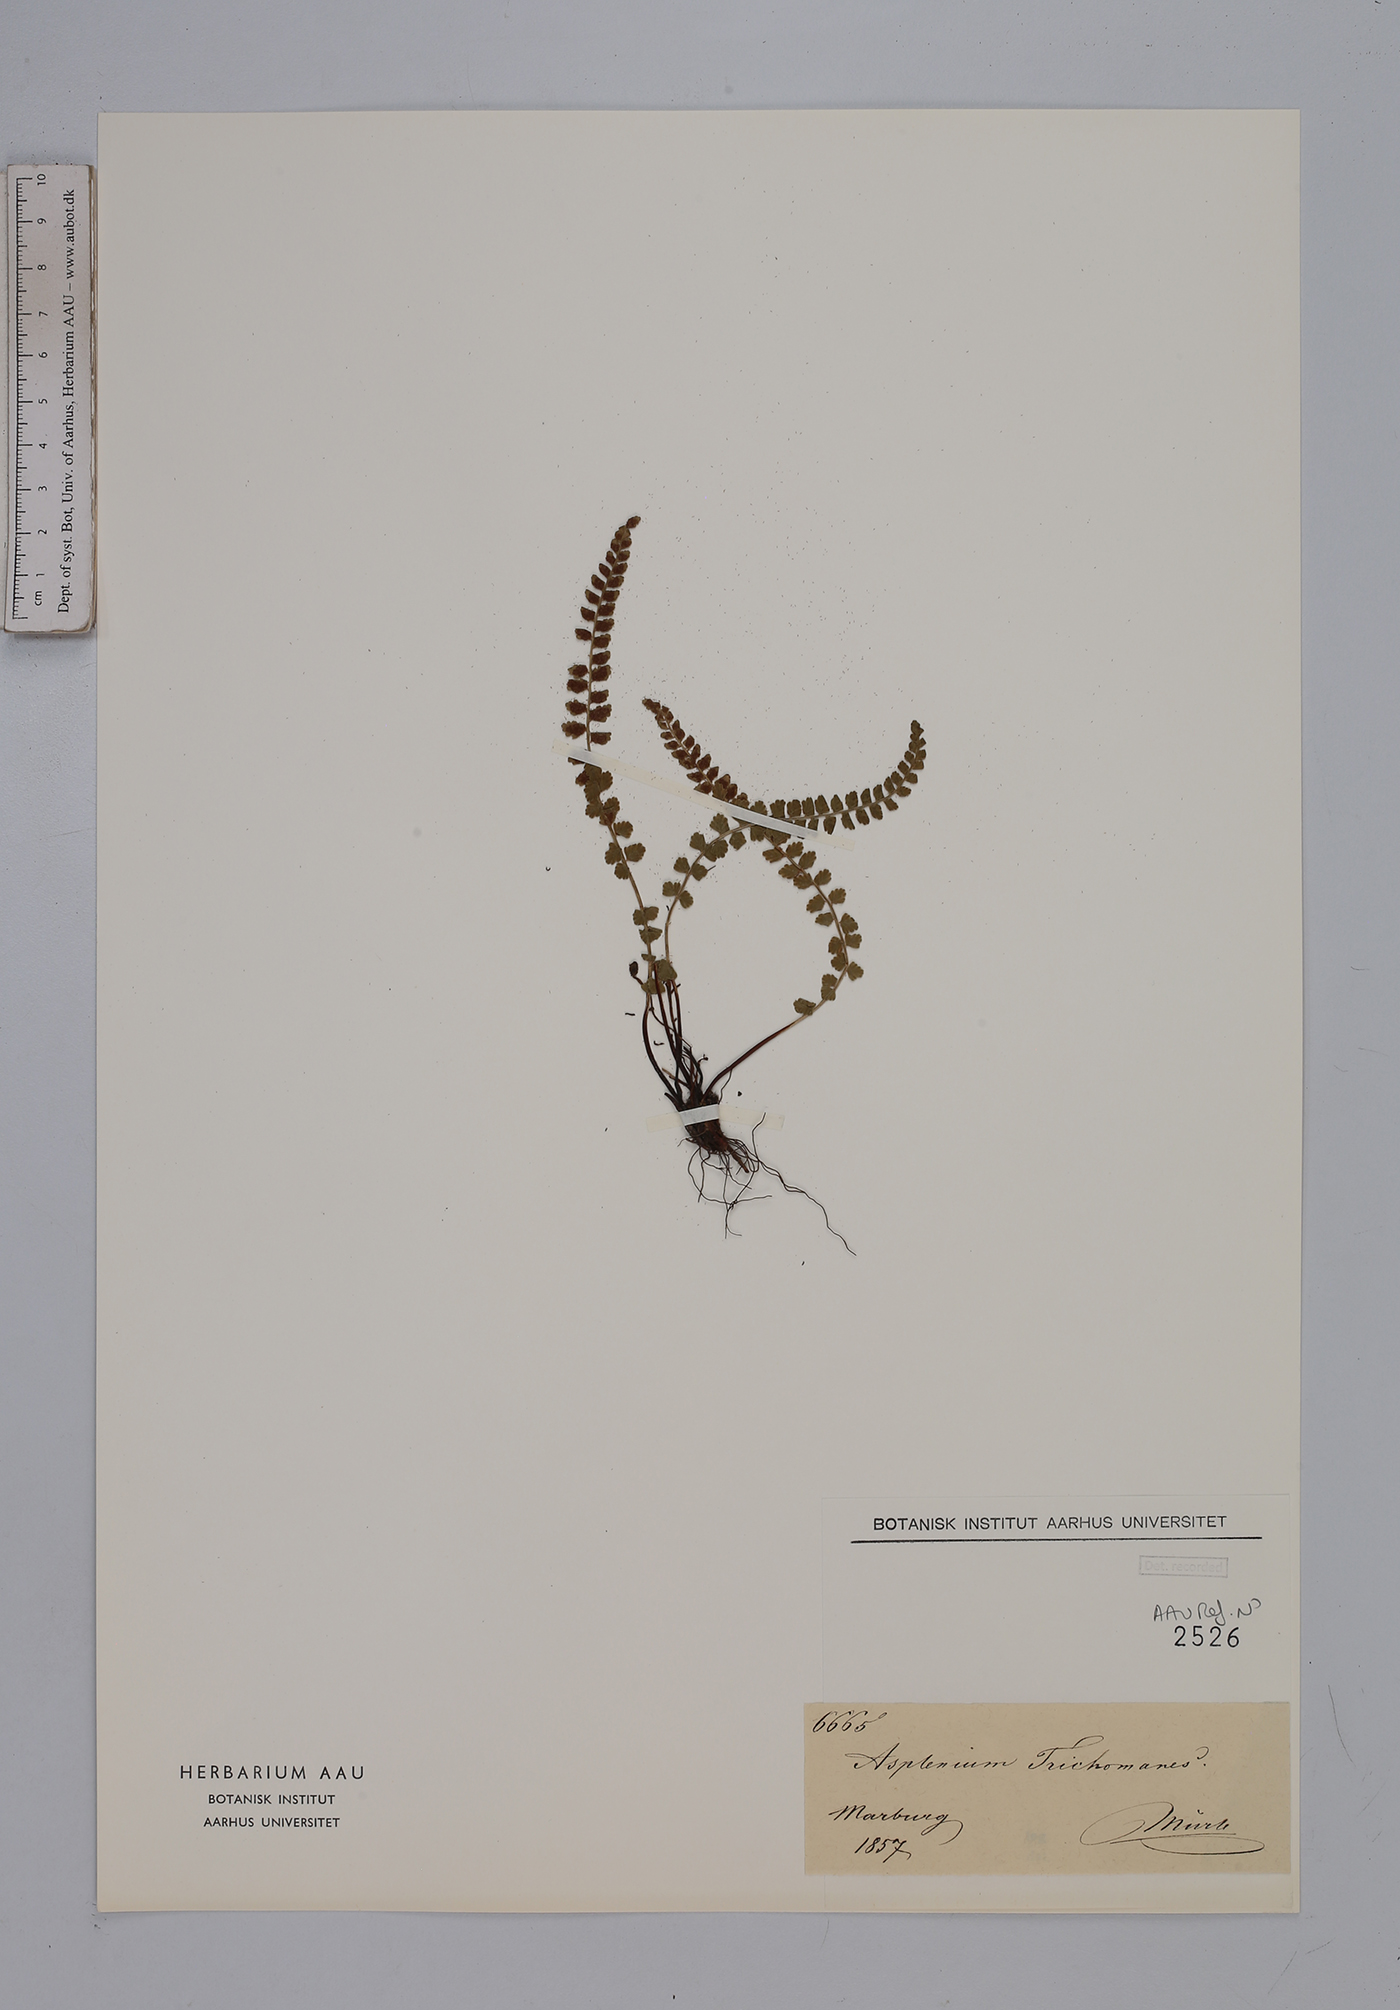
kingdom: Plantae
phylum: Tracheophyta
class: Polypodiopsida
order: Polypodiales
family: Aspleniaceae
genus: Asplenium
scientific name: Asplenium viride
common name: Green spleenwort
